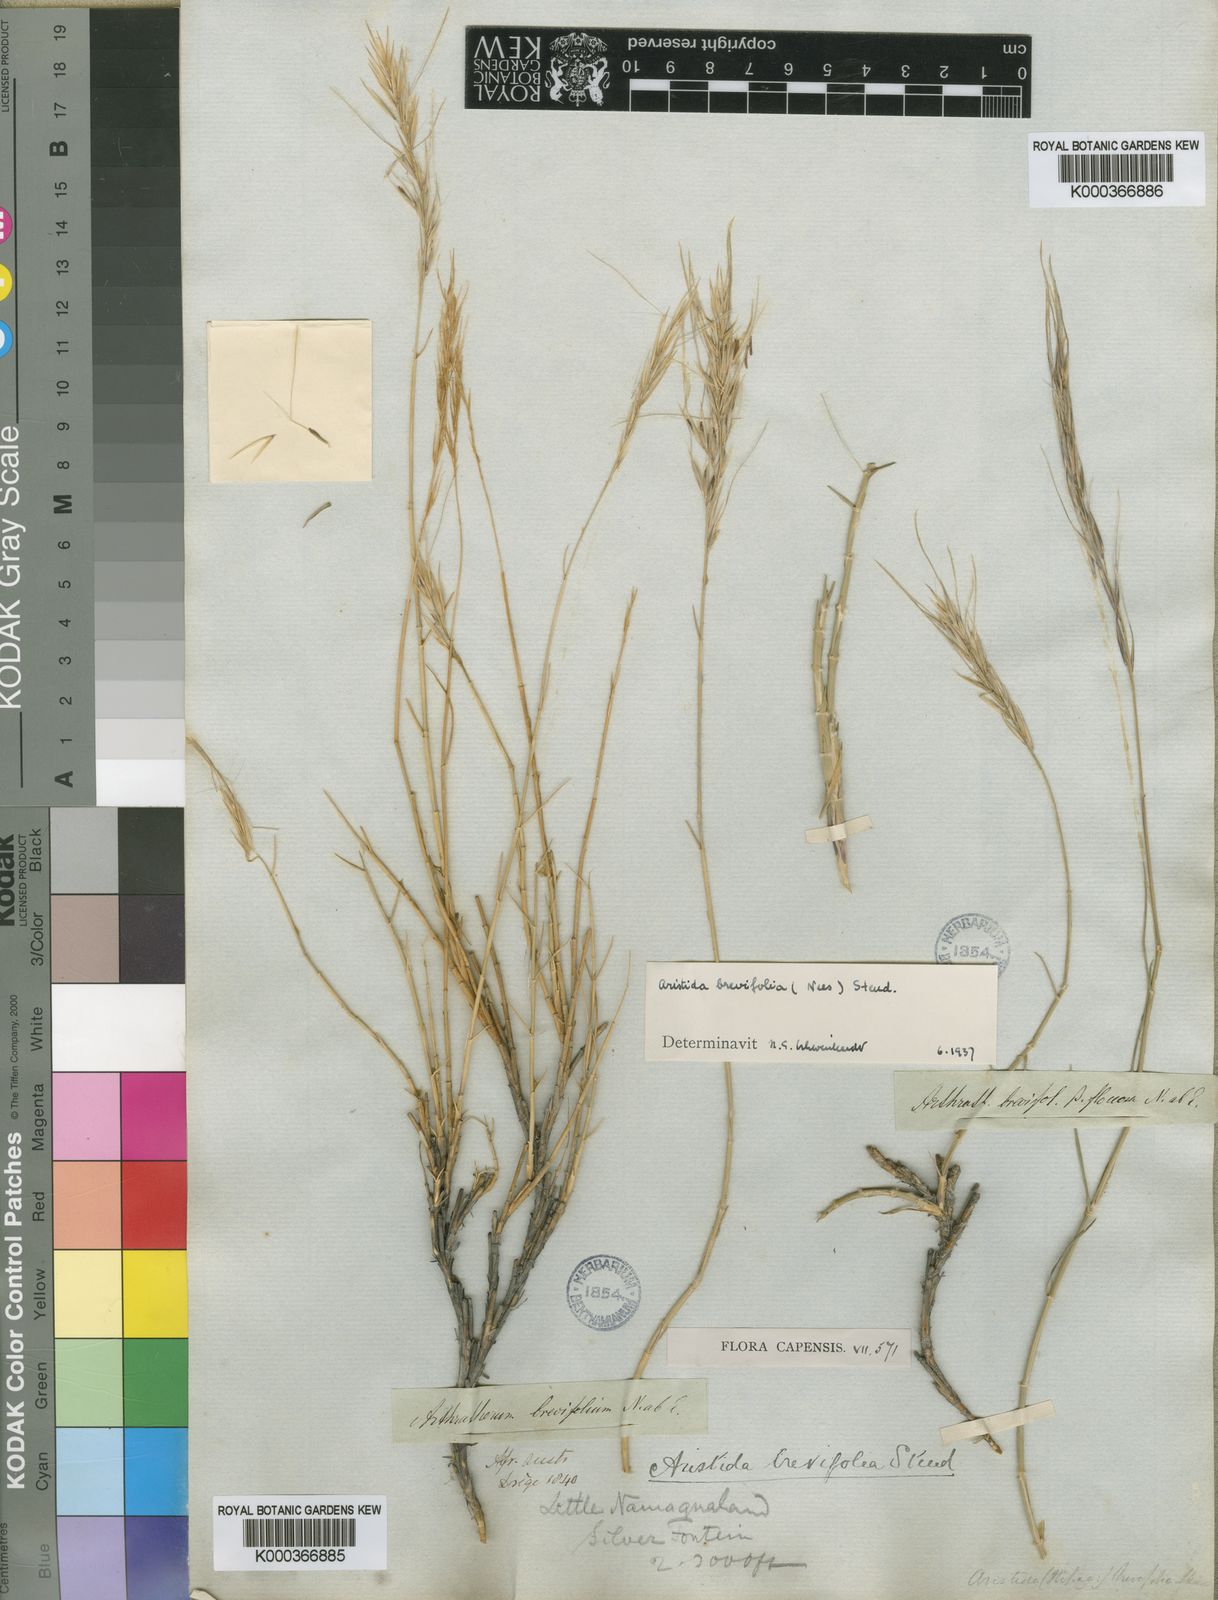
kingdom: Plantae
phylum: Tracheophyta
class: Liliopsida
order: Poales
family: Poaceae
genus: Stipagrostis
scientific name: Stipagrostis brevifolia
